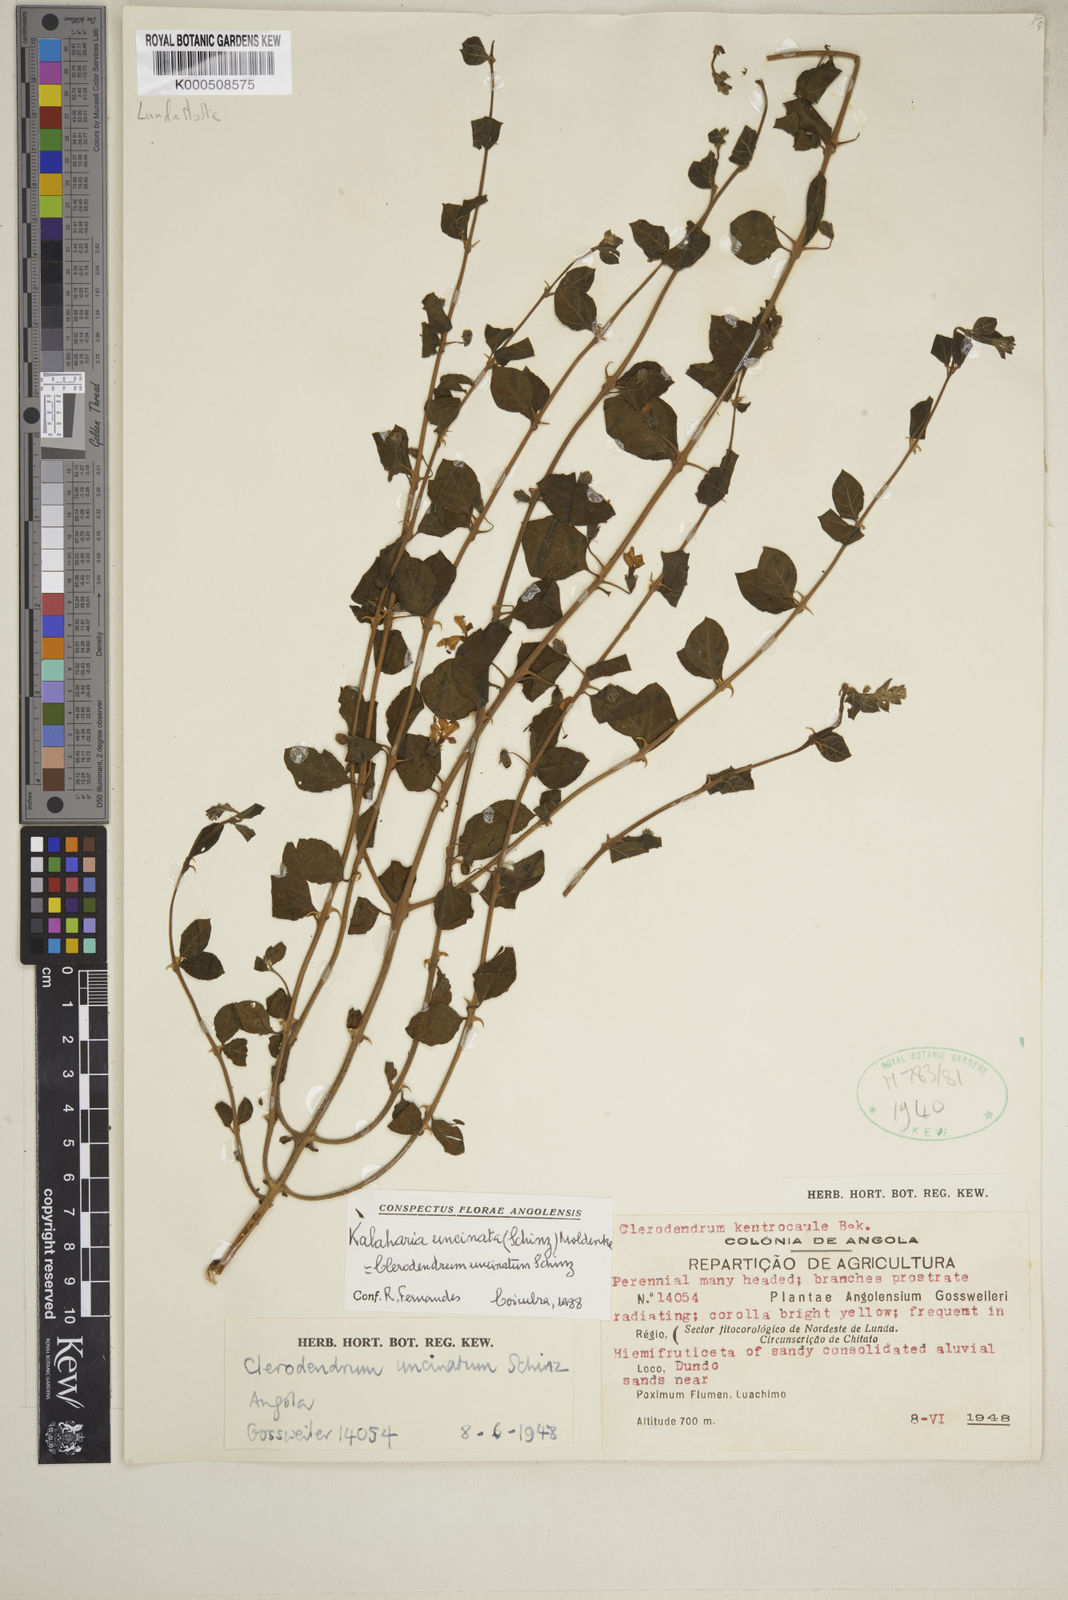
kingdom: Plantae
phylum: Tracheophyta
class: Magnoliopsida
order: Lamiales
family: Lamiaceae
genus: Kalaharia
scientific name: Kalaharia uncinata
